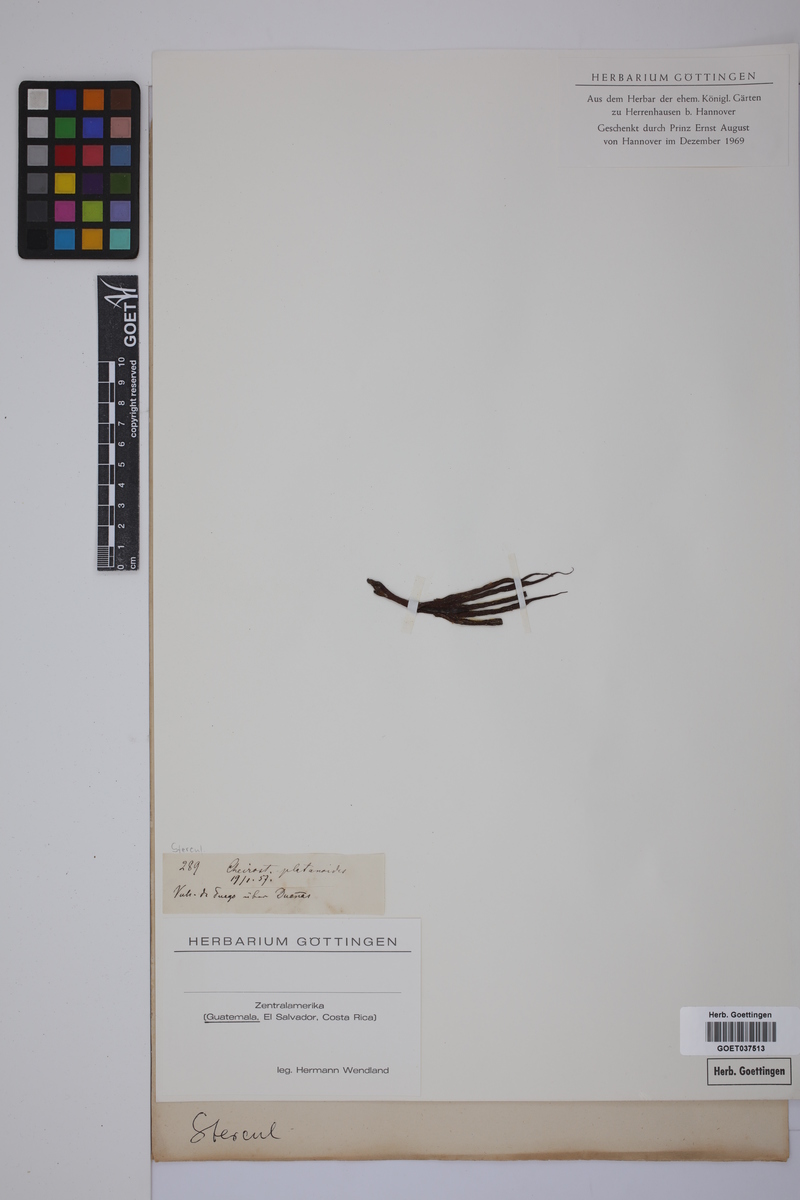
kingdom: Plantae
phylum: Tracheophyta
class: Magnoliopsida
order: Malvales
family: Malvaceae
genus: Chiranthodendron
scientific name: Chiranthodendron pentadactylon
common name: Mexican-hat-plant
